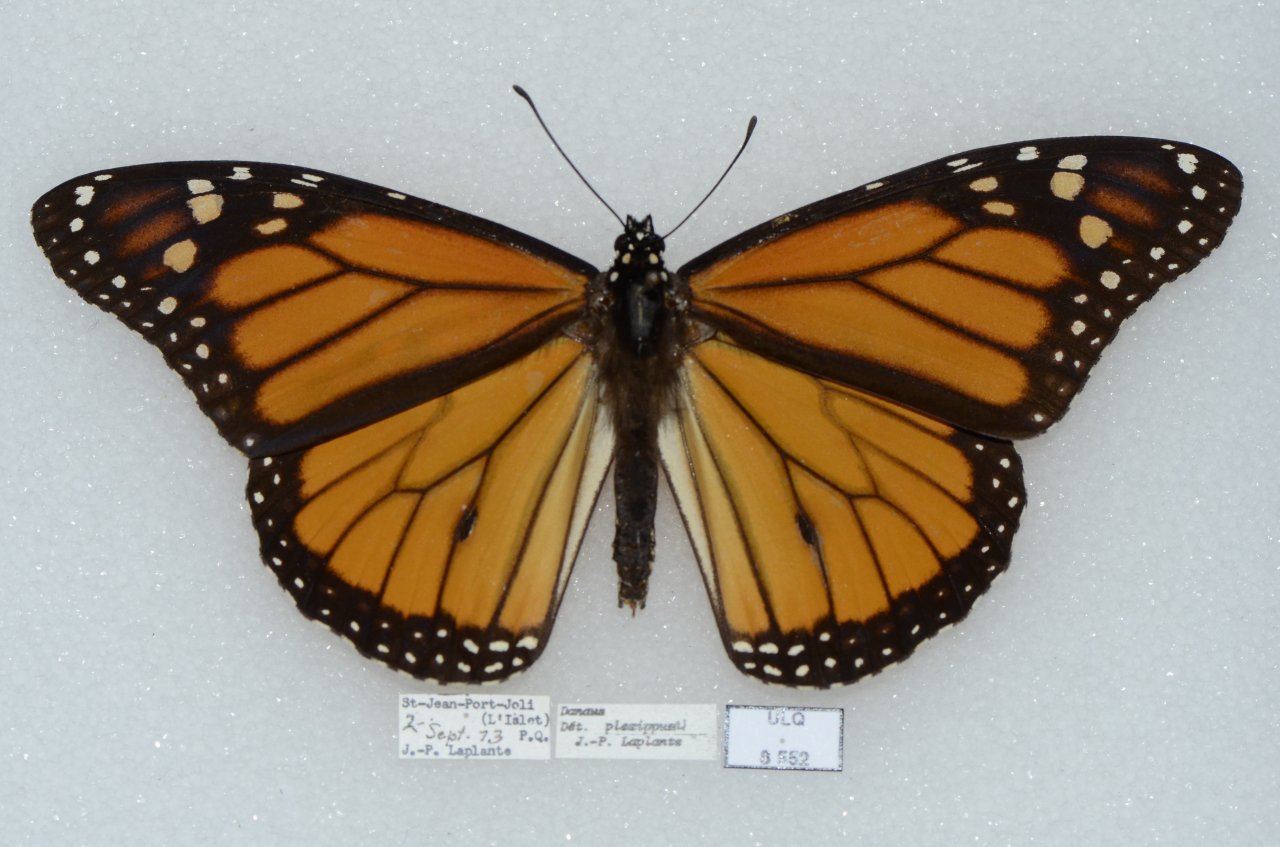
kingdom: Animalia
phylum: Arthropoda
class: Insecta
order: Lepidoptera
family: Nymphalidae
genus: Danaus
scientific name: Danaus plexippus
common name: Monarch
